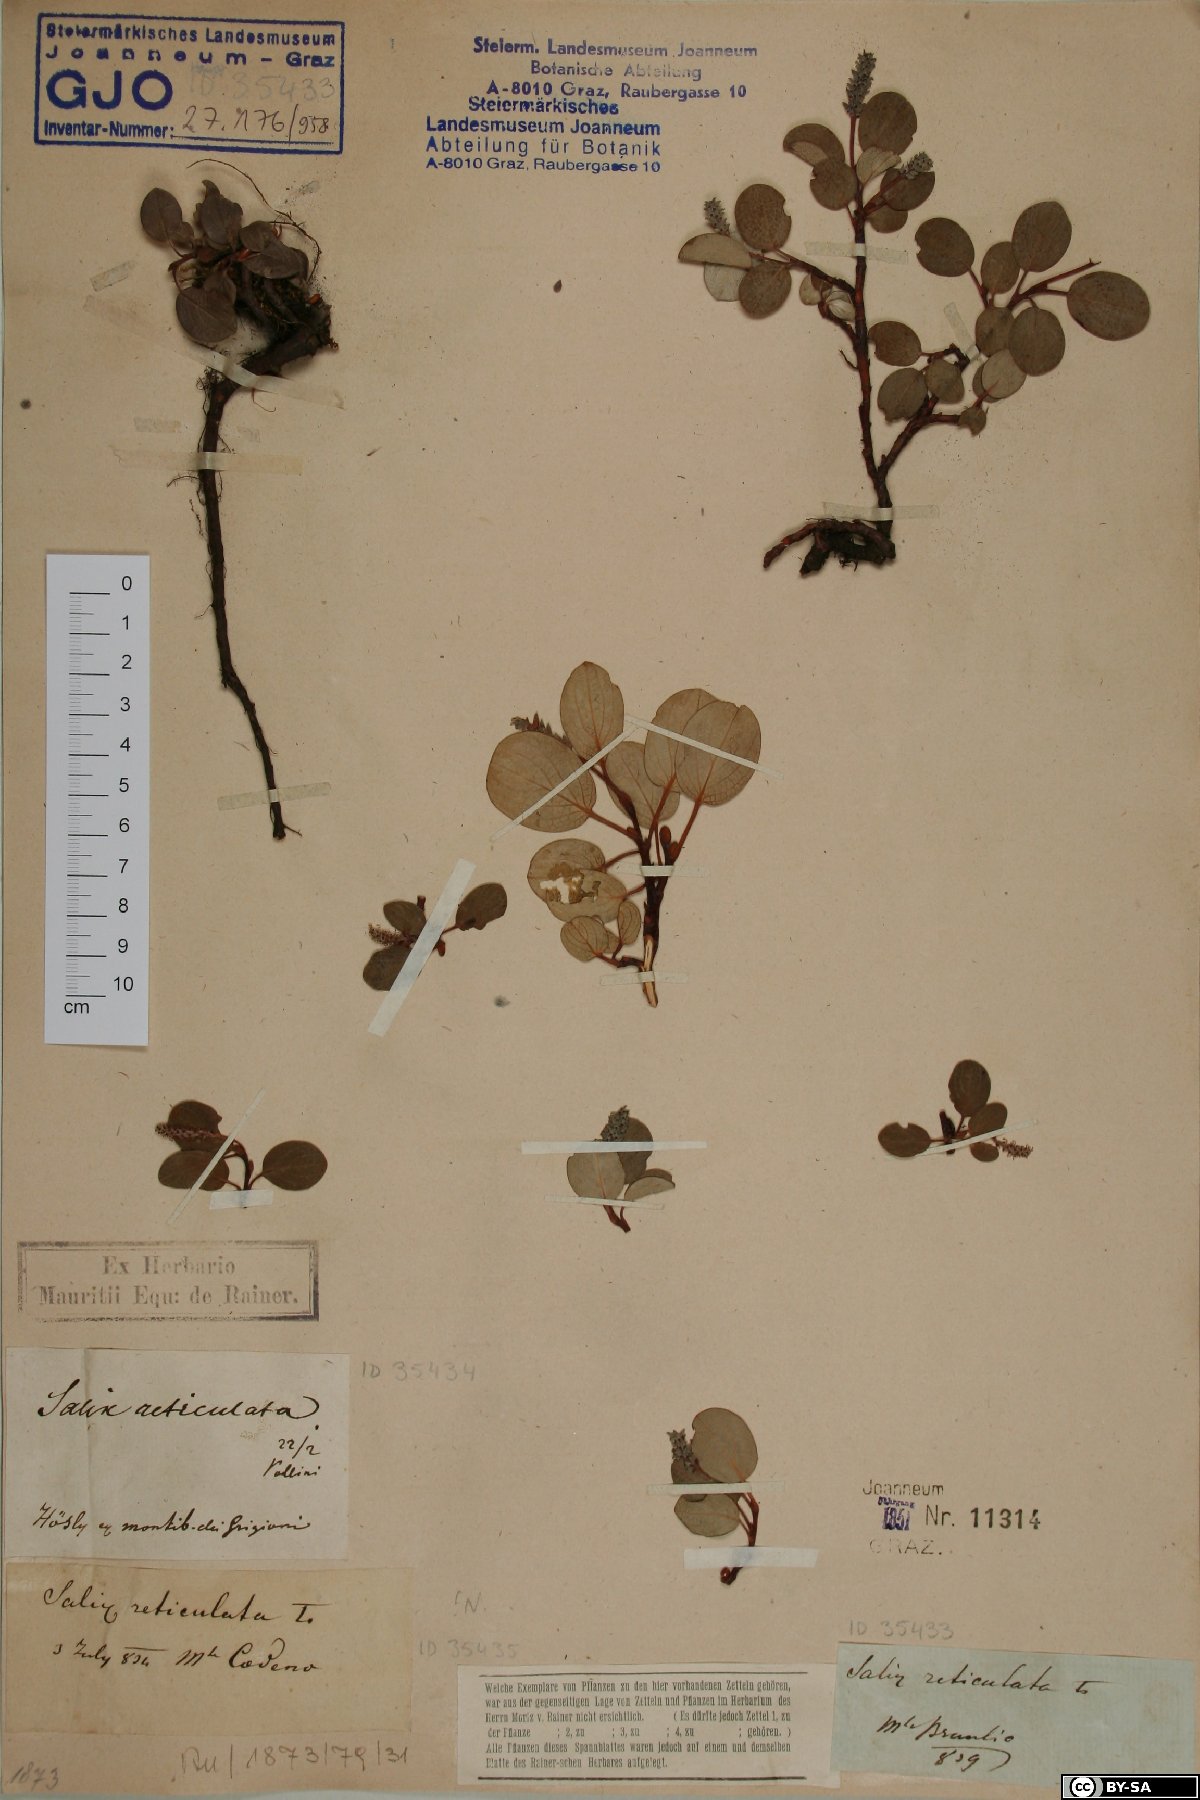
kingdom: Plantae
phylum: Tracheophyta
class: Magnoliopsida
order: Malpighiales
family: Salicaceae
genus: Salix
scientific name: Salix reticulata
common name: Net-leaved willow
